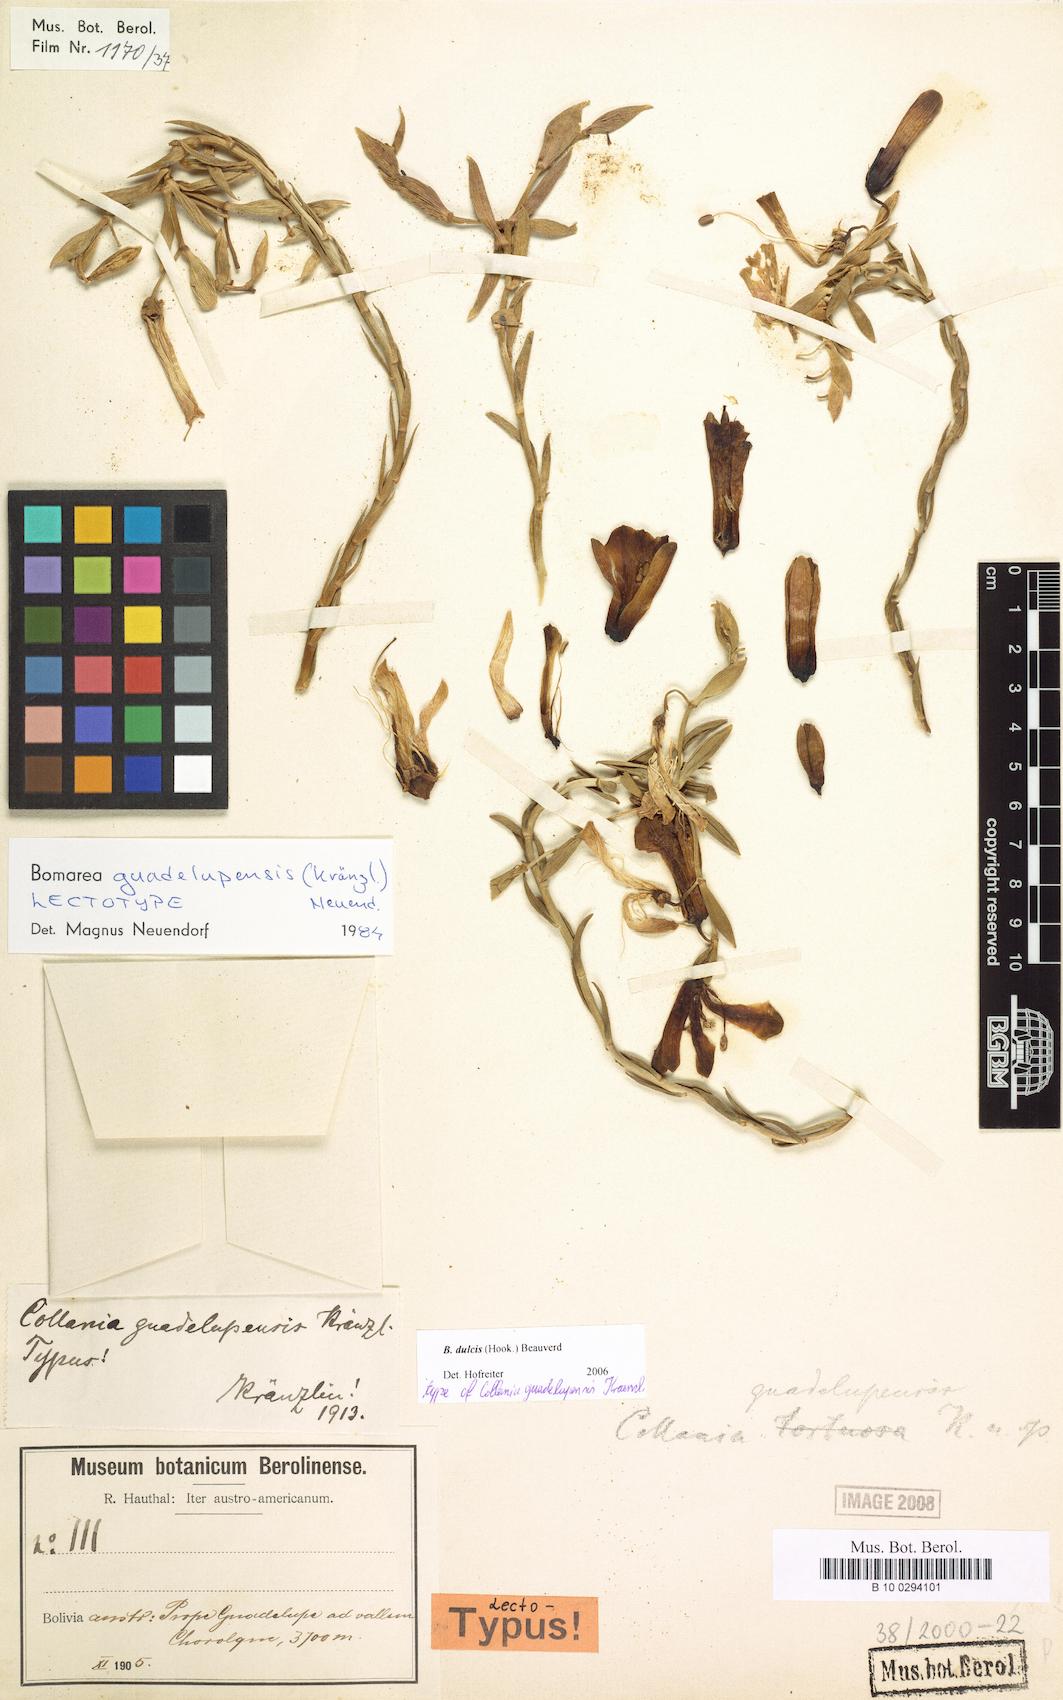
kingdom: Plantae
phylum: Tracheophyta
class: Liliopsida
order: Liliales
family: Alstroemeriaceae
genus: Bomarea
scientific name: Bomarea dulcis
